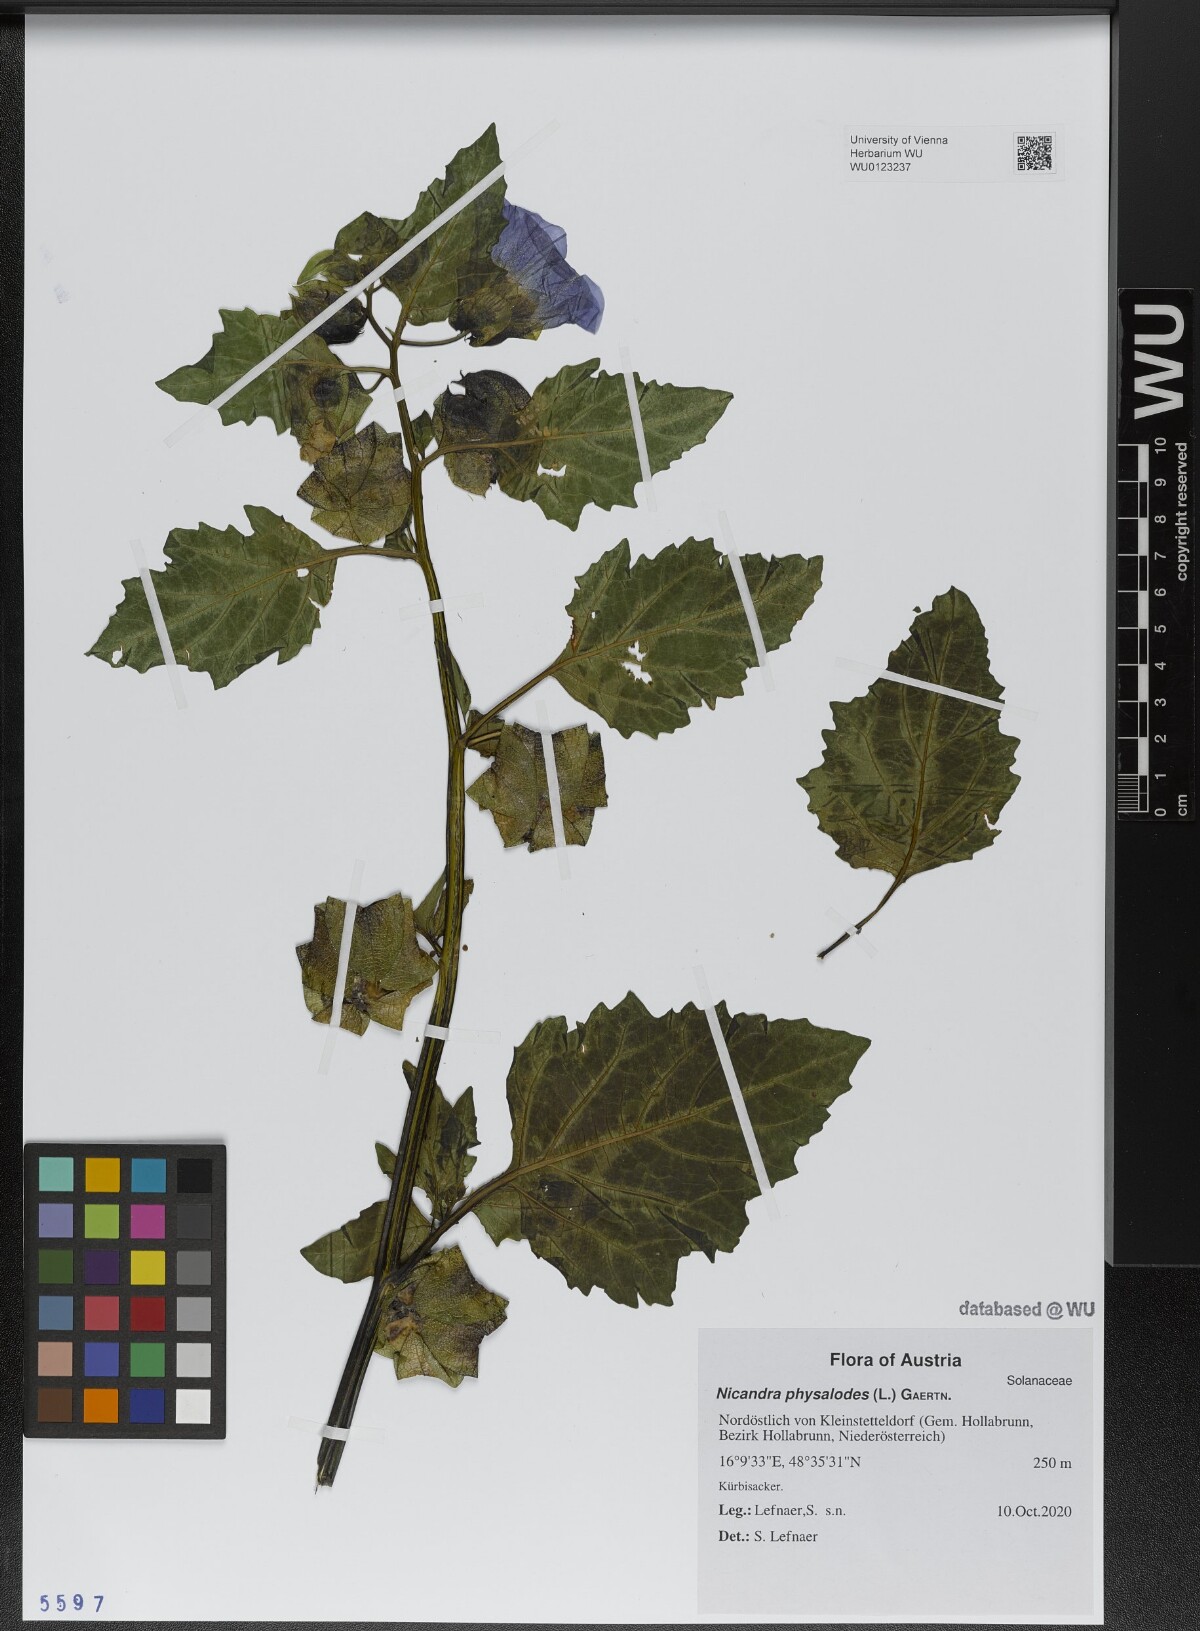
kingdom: Plantae
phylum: Tracheophyta
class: Magnoliopsida
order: Solanales
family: Solanaceae
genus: Nicandra
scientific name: Nicandra physalodes
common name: Apple-of-peru
